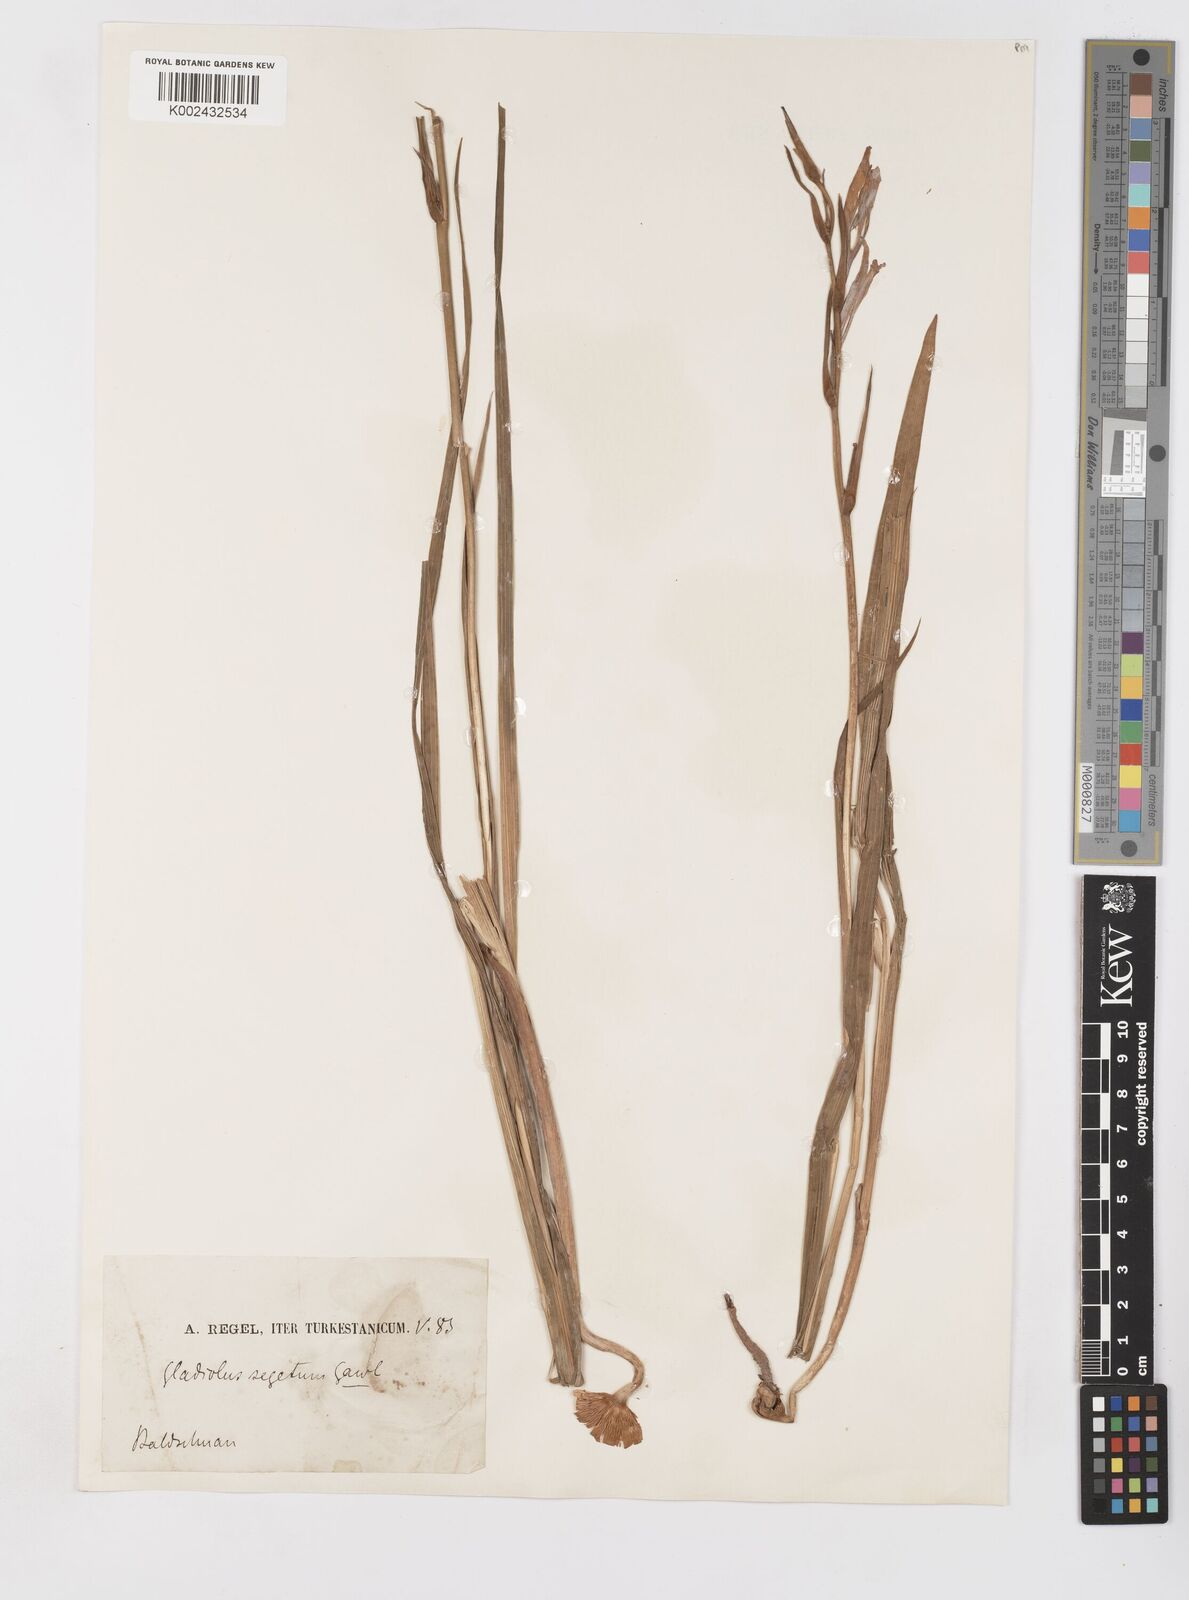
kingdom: Plantae
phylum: Tracheophyta
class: Liliopsida
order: Asparagales
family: Iridaceae
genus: Gladiolus
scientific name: Gladiolus italicus
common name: Field gladiolus
